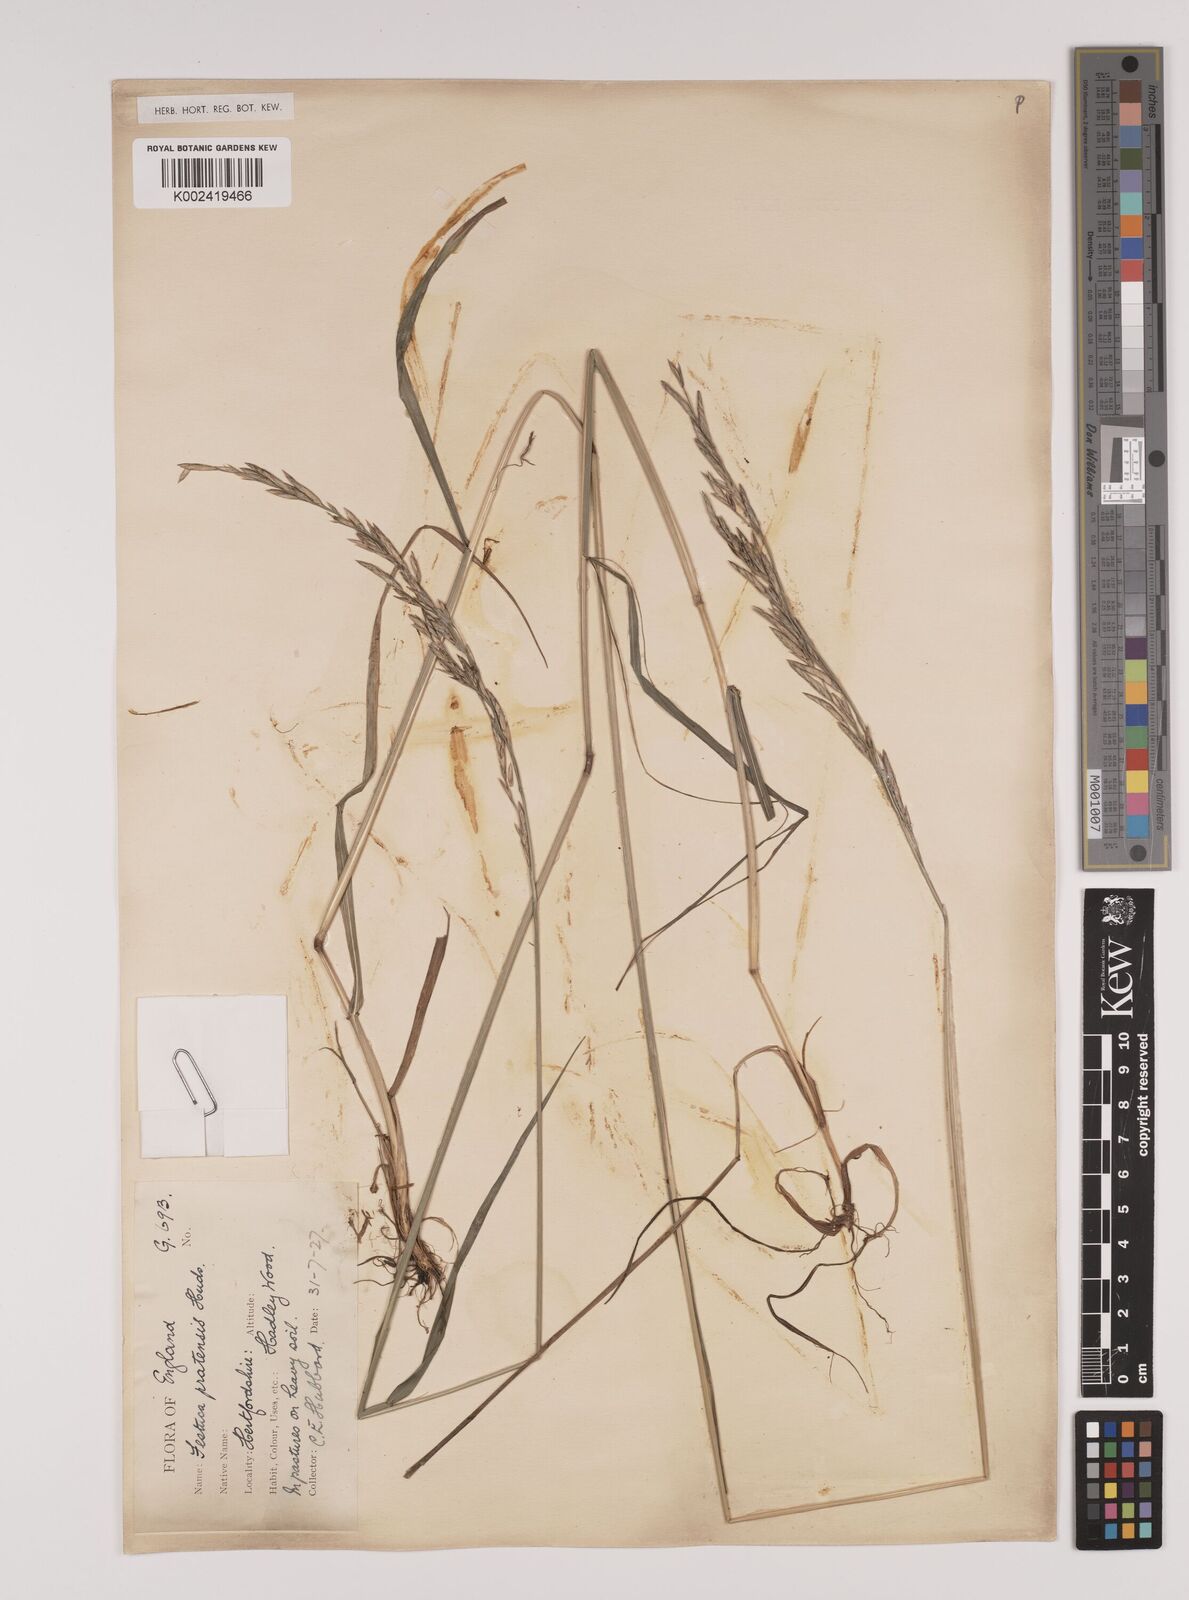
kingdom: Plantae
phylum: Tracheophyta
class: Liliopsida
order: Poales
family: Poaceae
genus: Lolium
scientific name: Lolium pratense
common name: Dover grass
